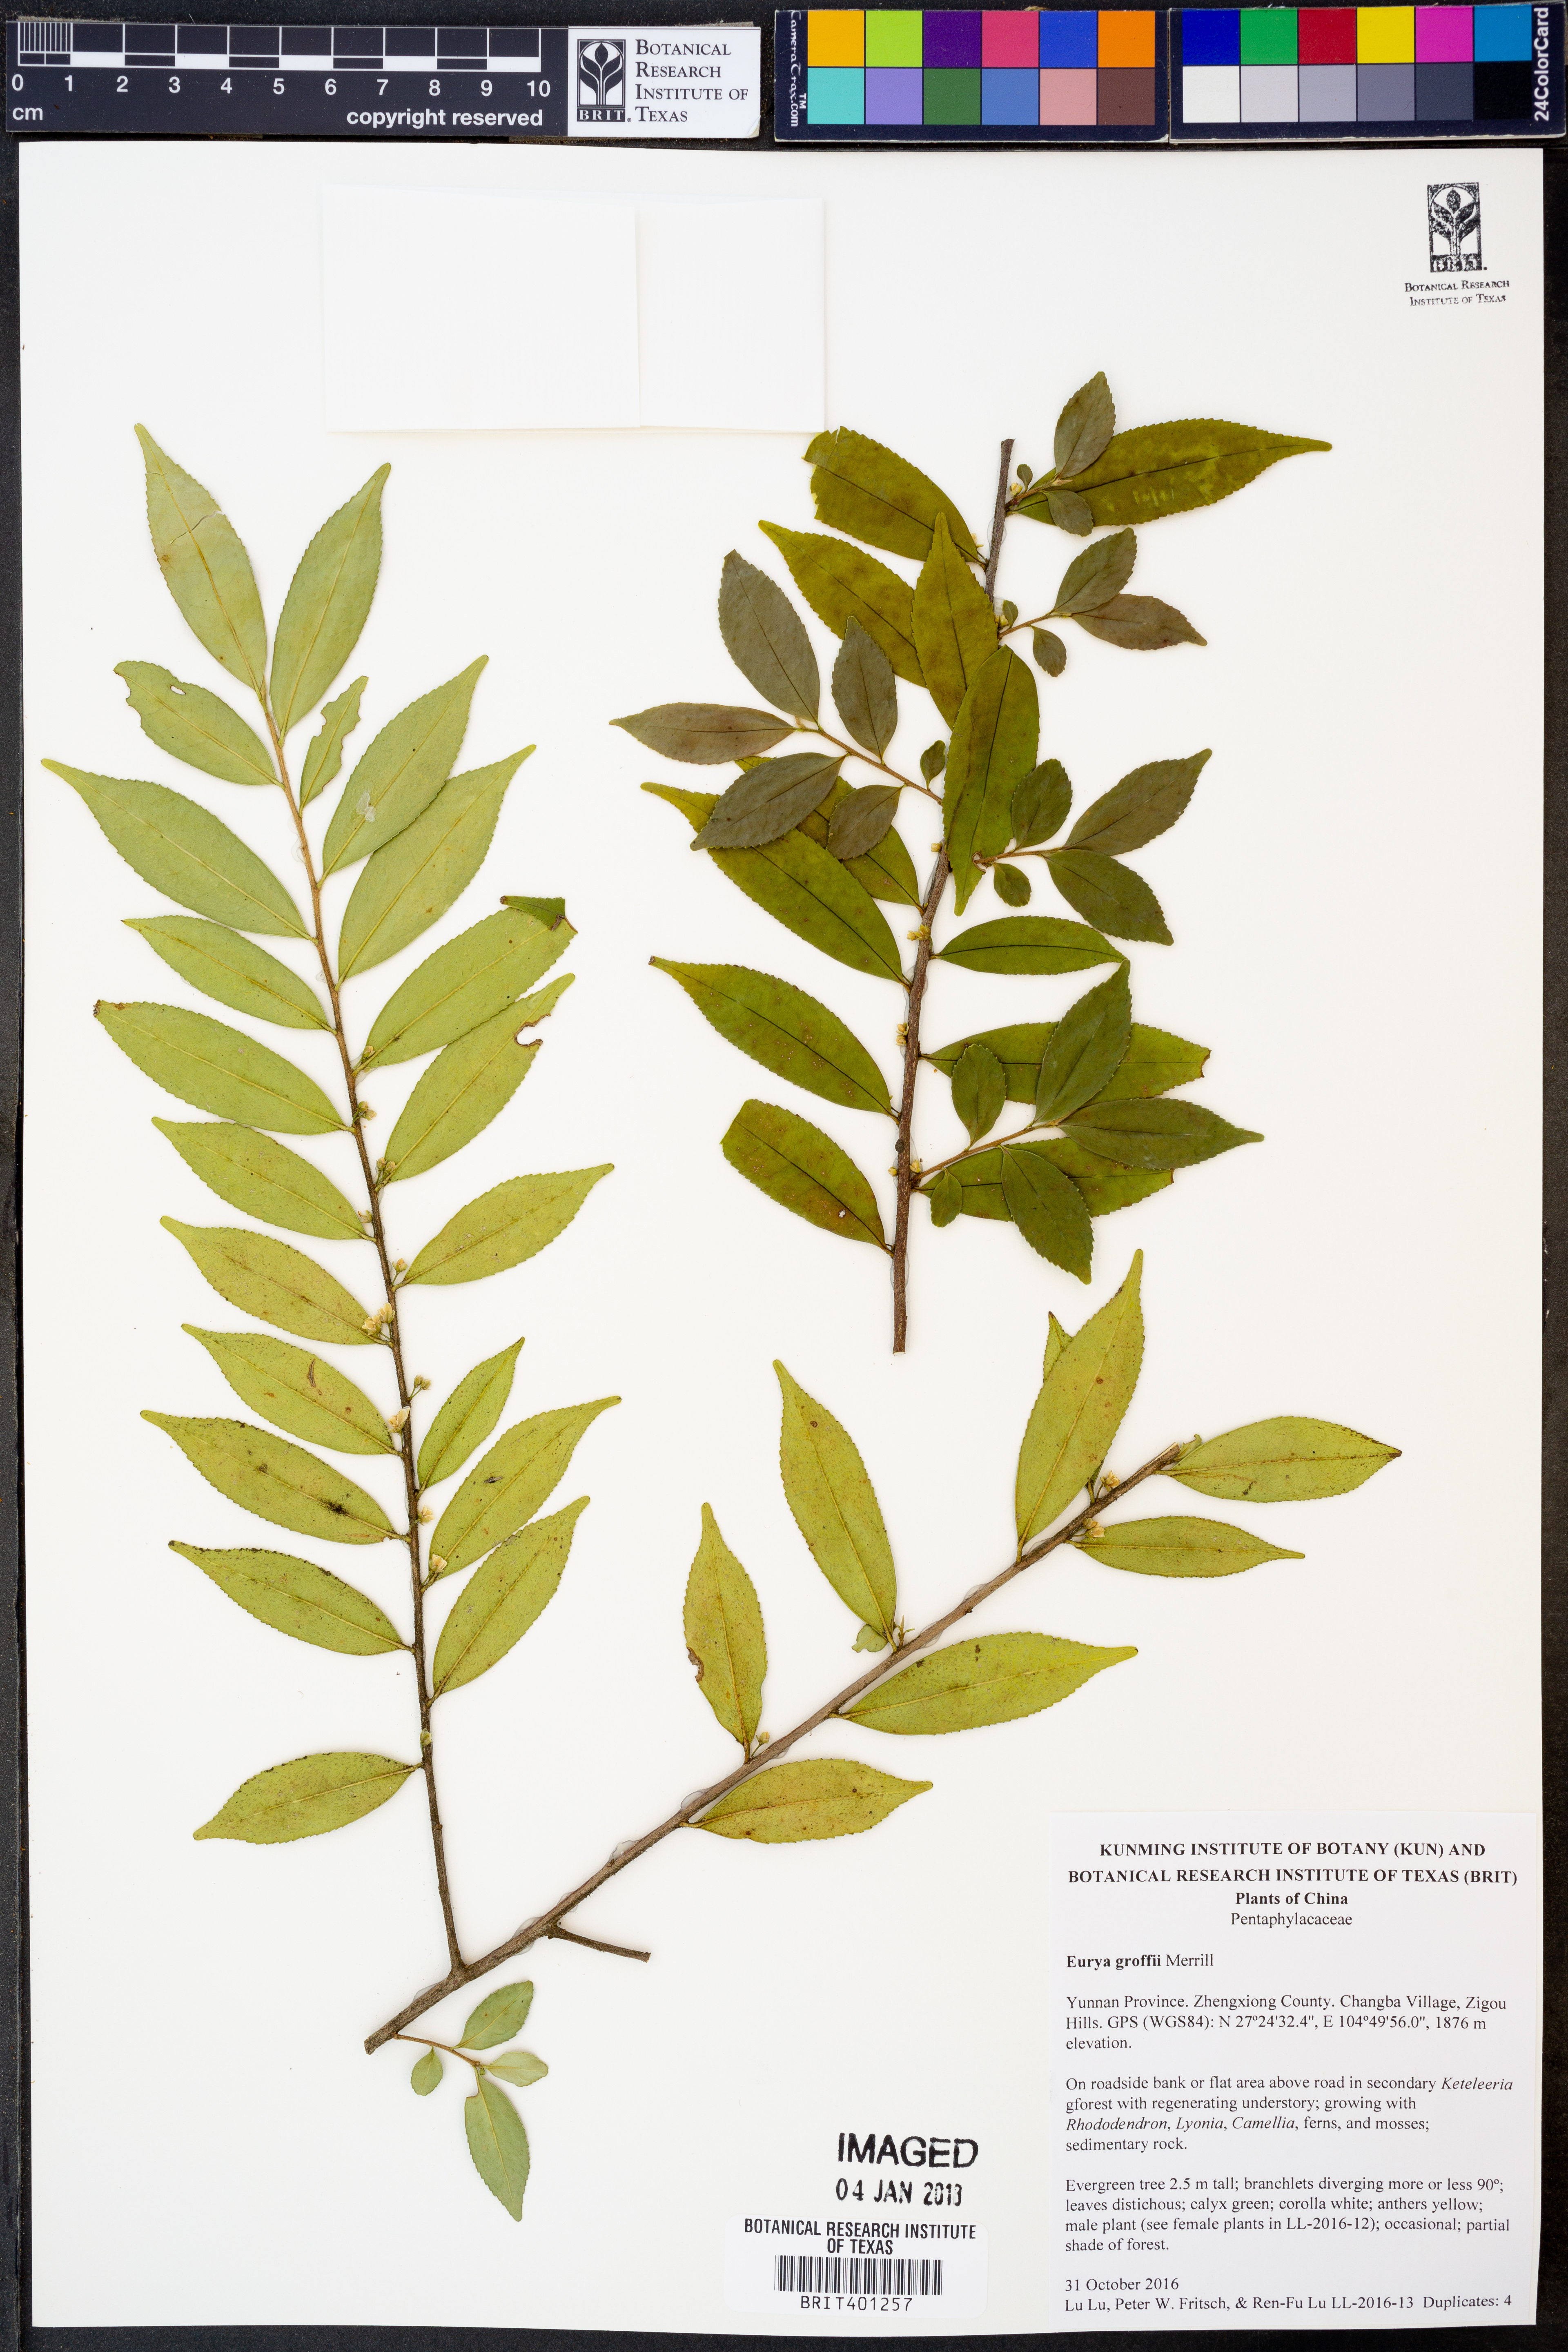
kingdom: Plantae
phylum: Tracheophyta
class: Magnoliopsida
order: Ericales
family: Pentaphylacaceae
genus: Eurya
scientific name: Eurya groffii
